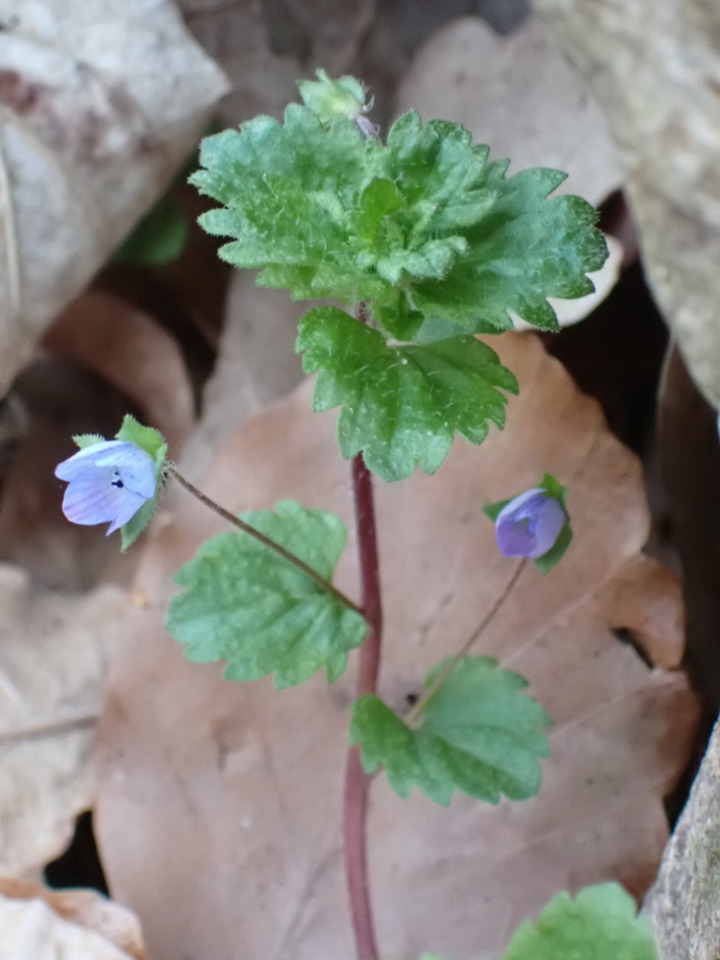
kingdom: Plantae
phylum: Tracheophyta
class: Magnoliopsida
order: Lamiales
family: Plantaginaceae
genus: Veronica
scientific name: Veronica persica
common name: Storkronet ærenpris
